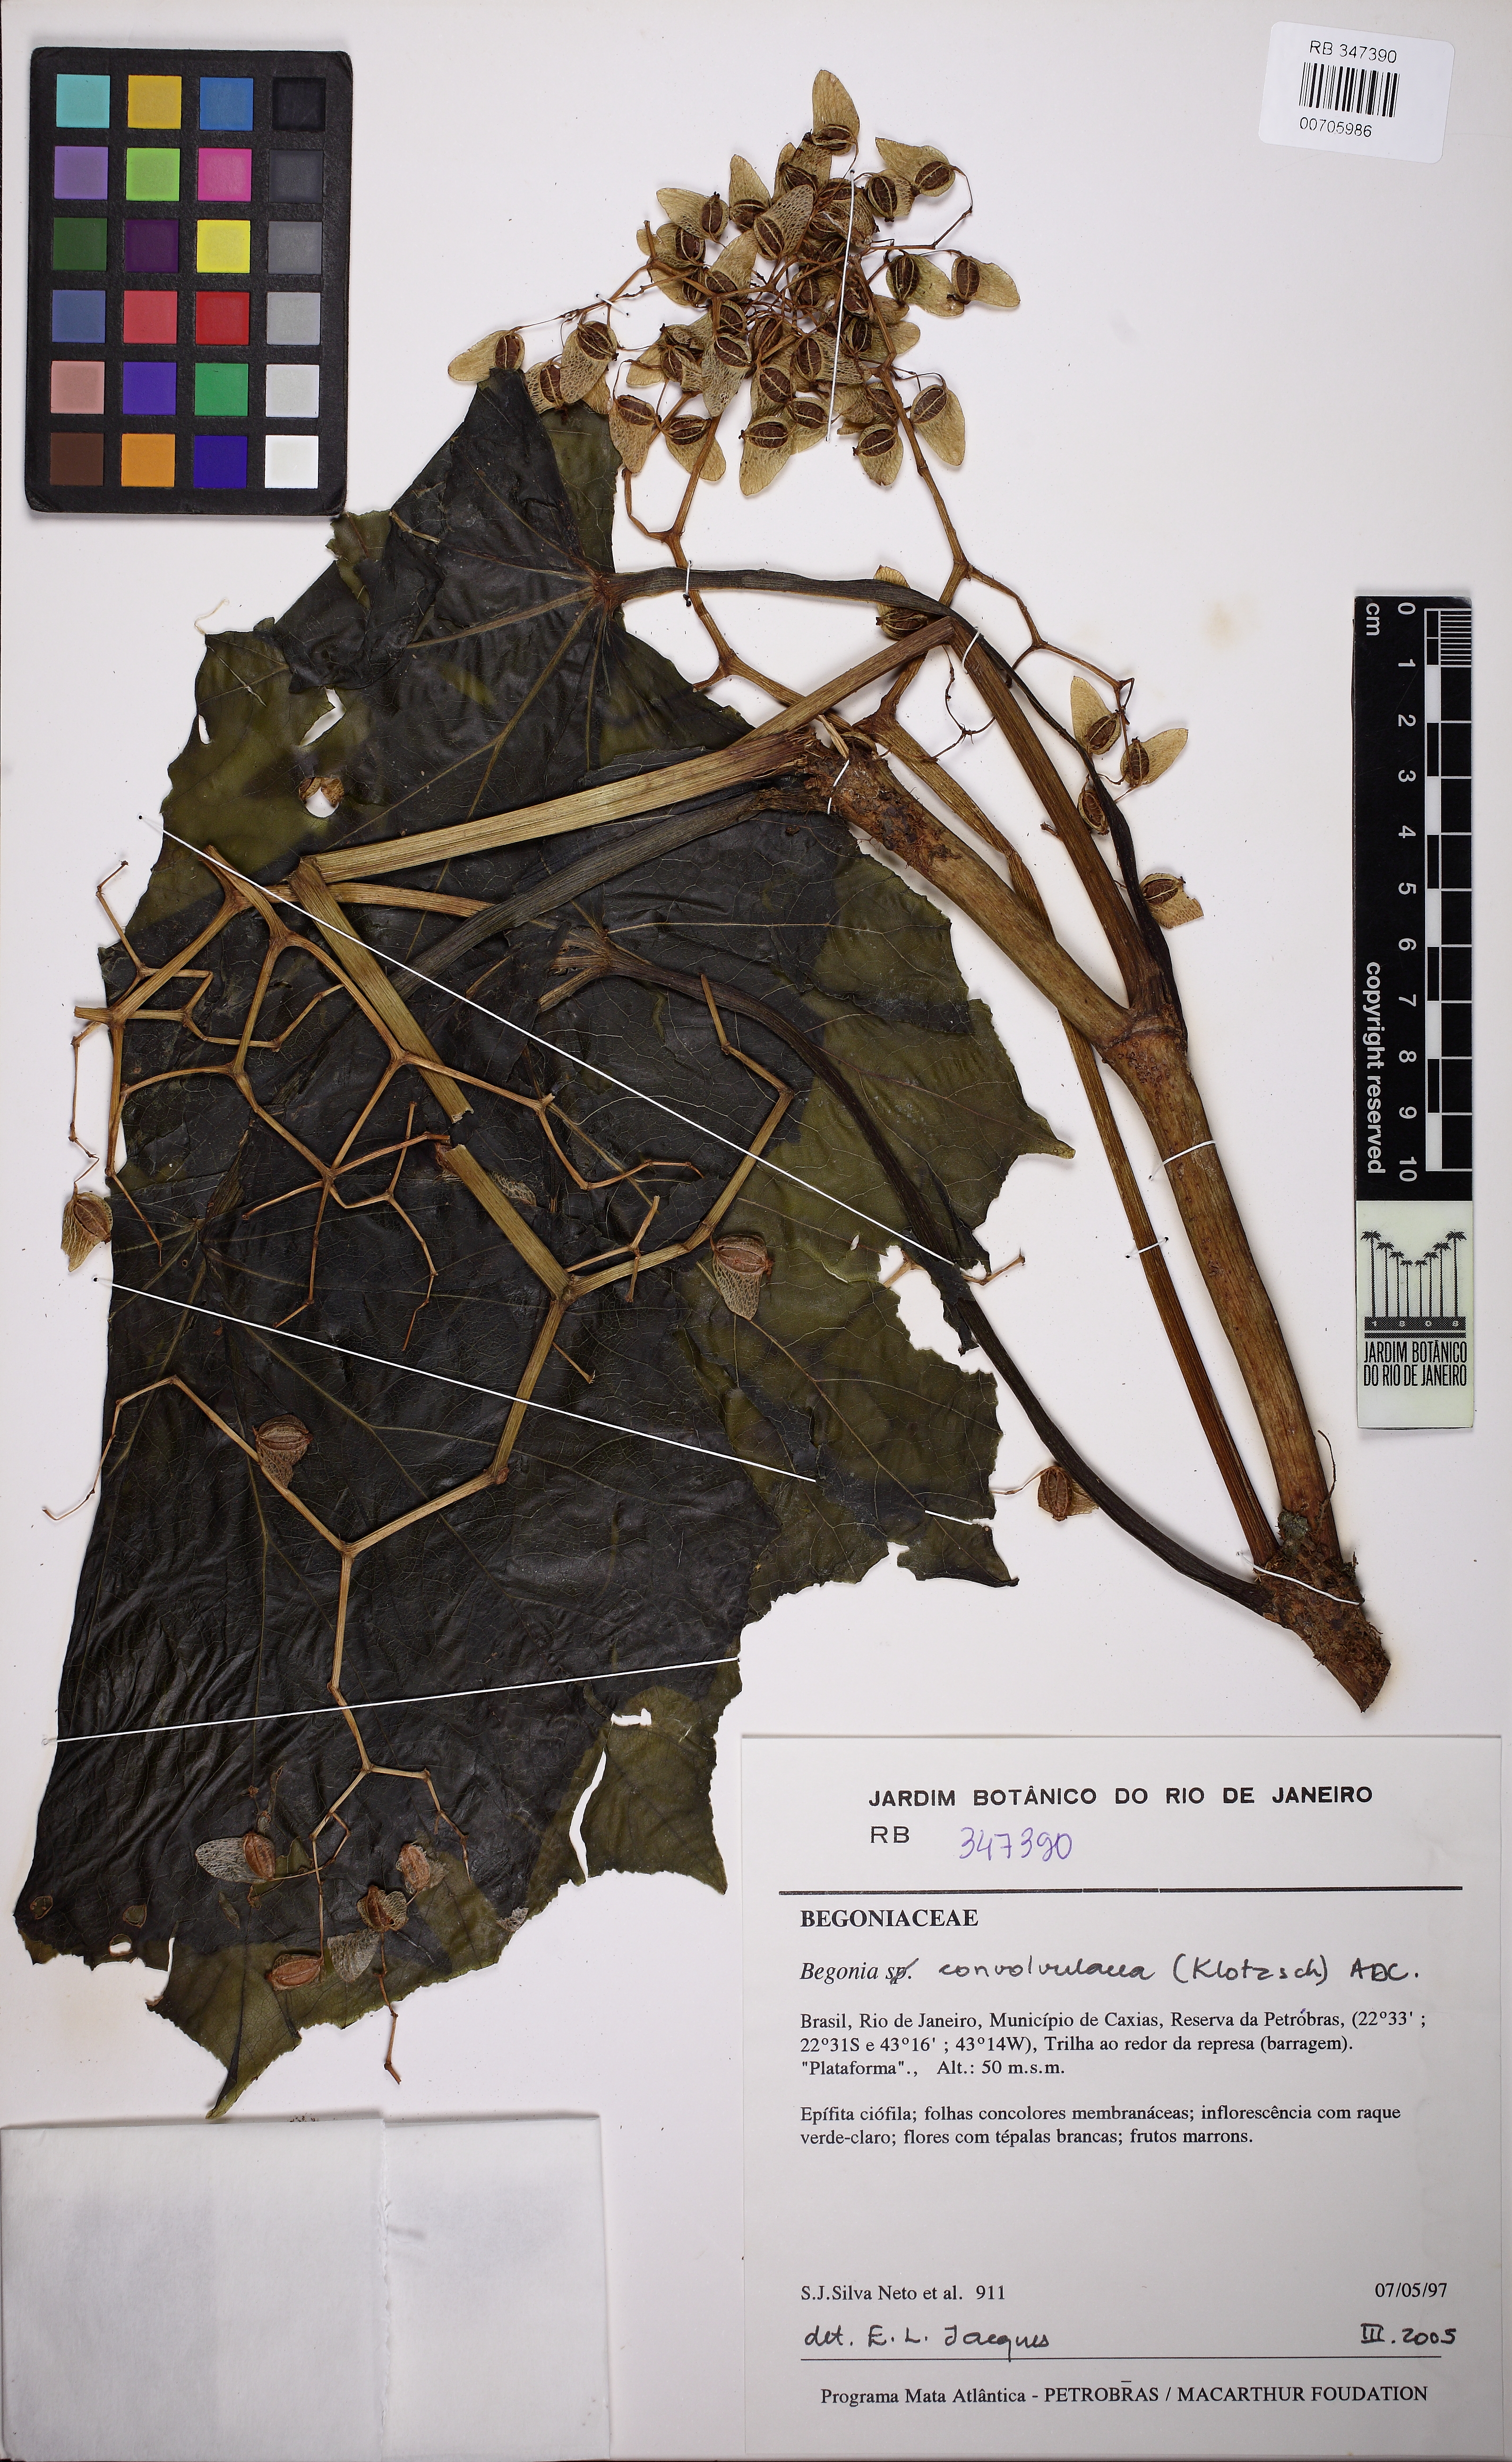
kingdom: Plantae
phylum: Tracheophyta
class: Magnoliopsida
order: Cucurbitales
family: Begoniaceae
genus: Begonia
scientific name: Begonia convolvulacea
